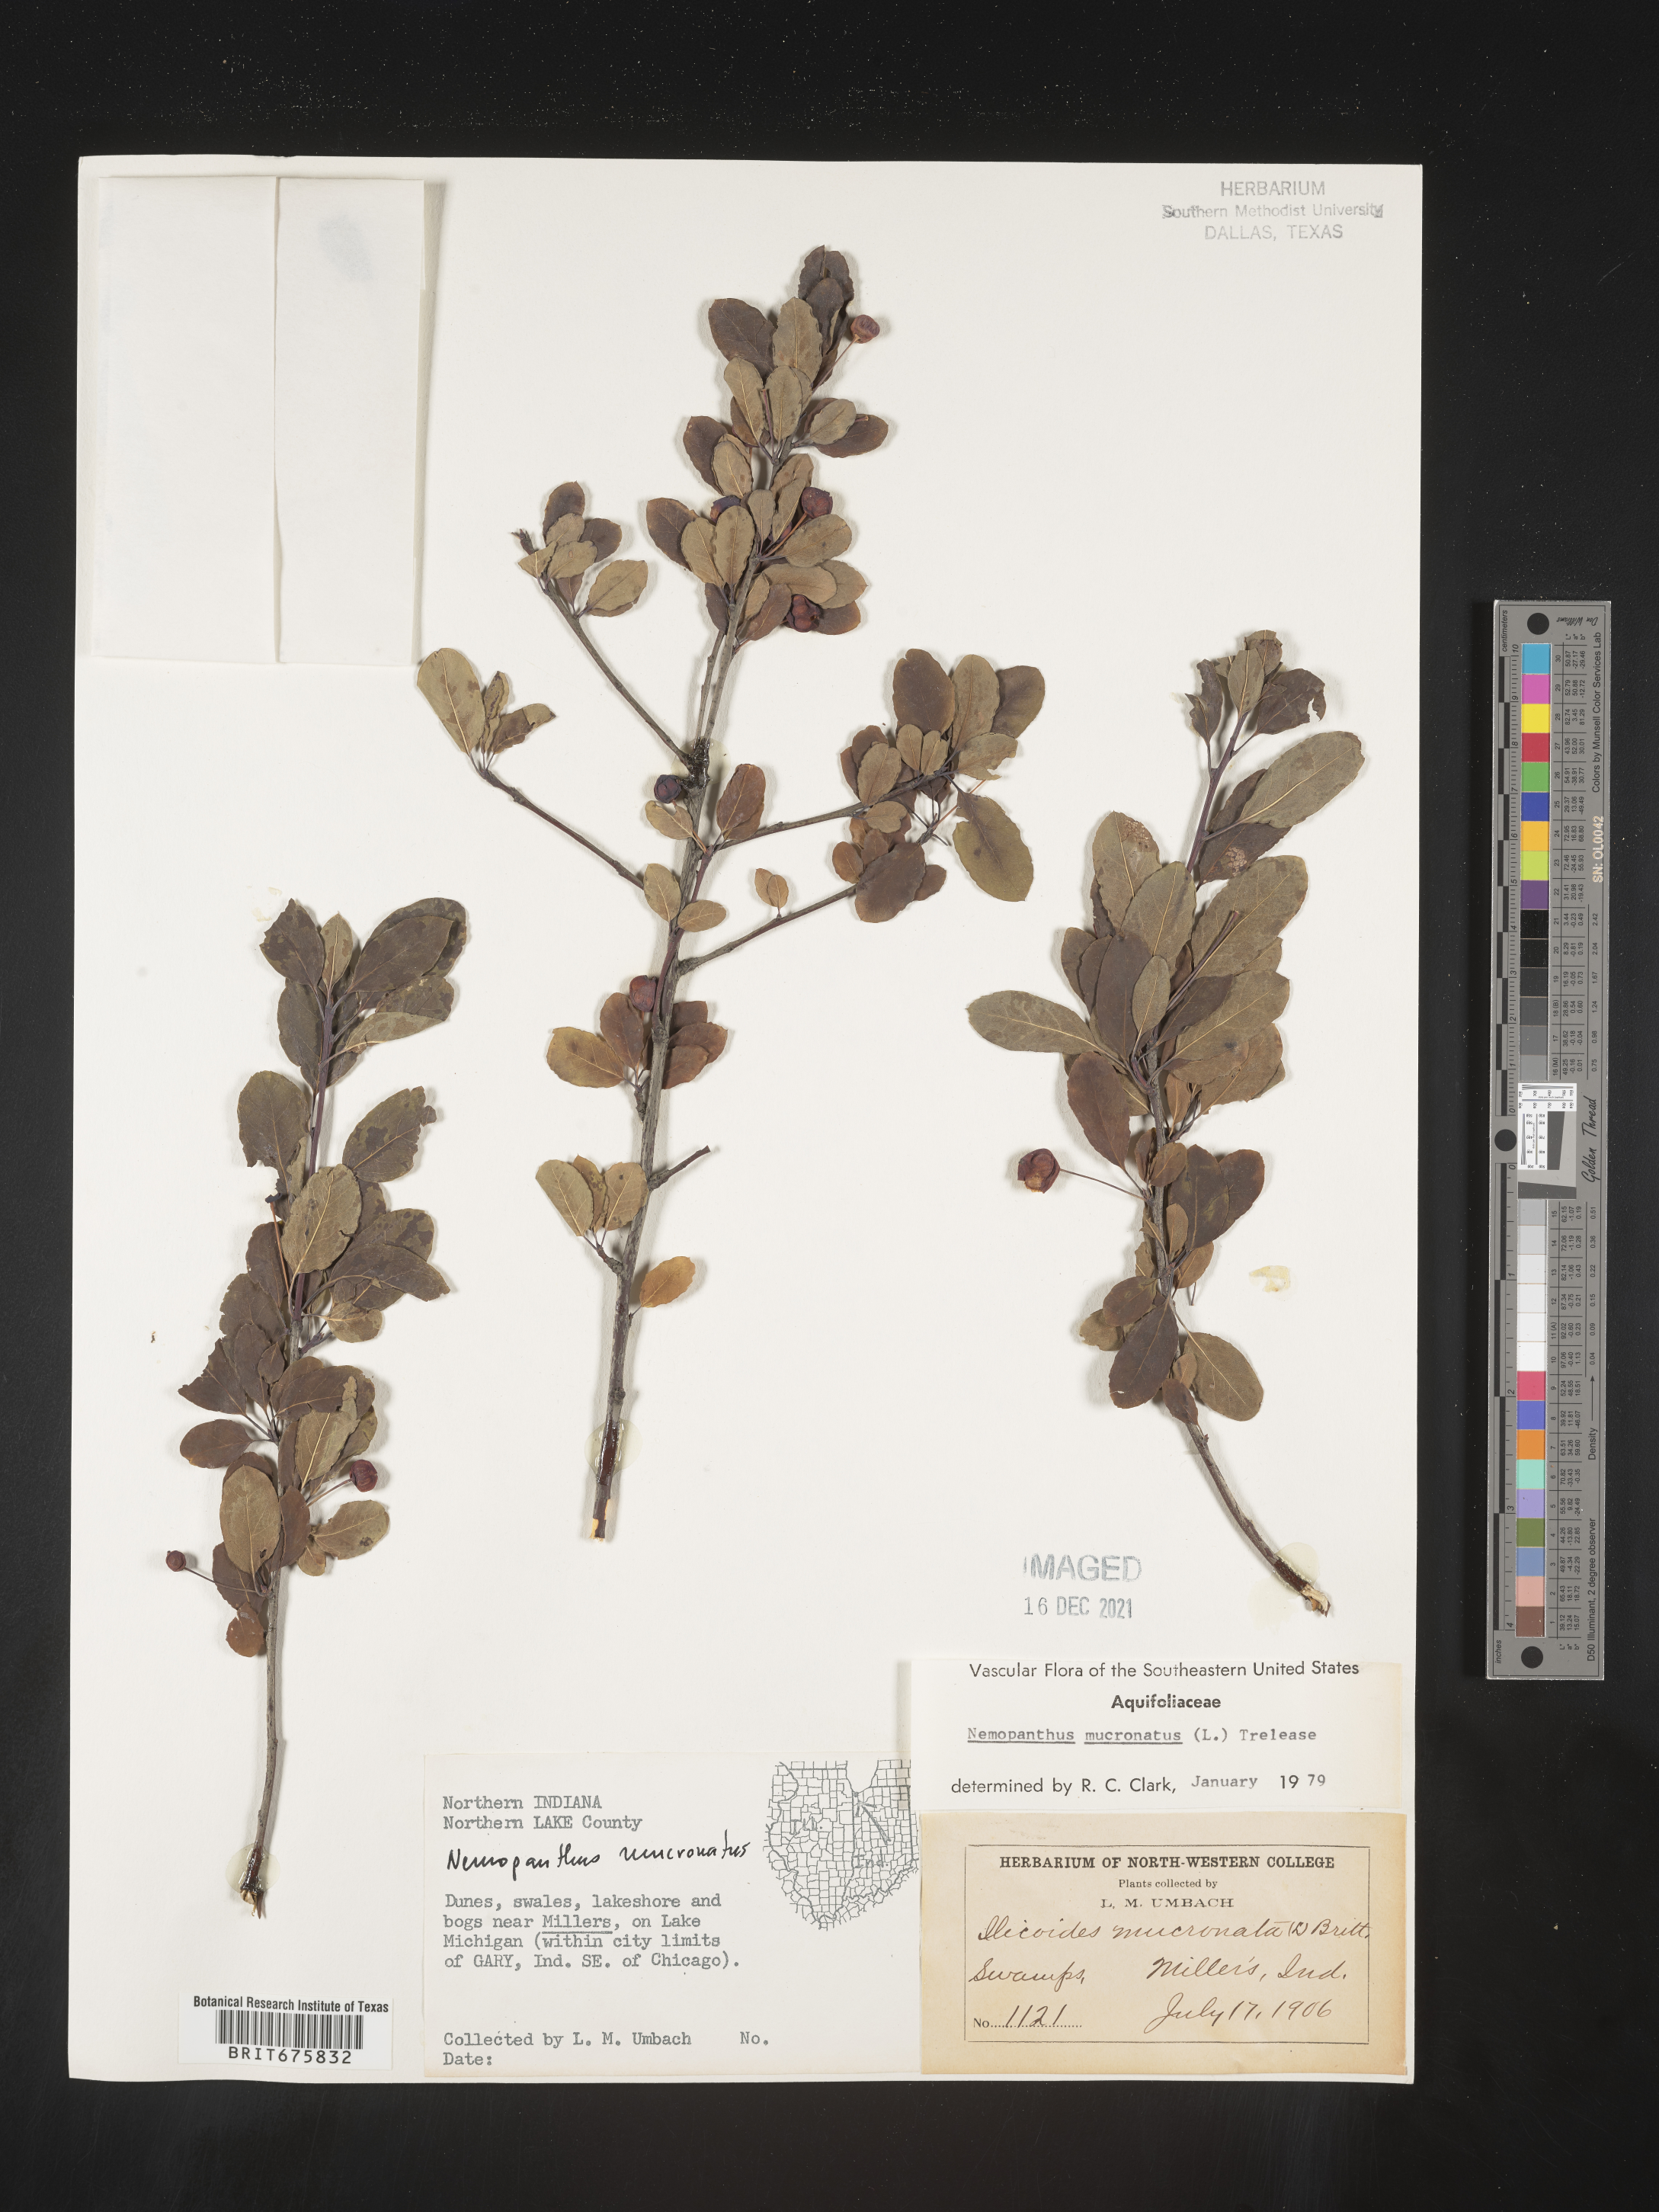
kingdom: Plantae
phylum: Tracheophyta
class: Magnoliopsida
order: Aquifoliales
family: Aquifoliaceae
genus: Ilex
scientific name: Ilex mucronata
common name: Catberry
